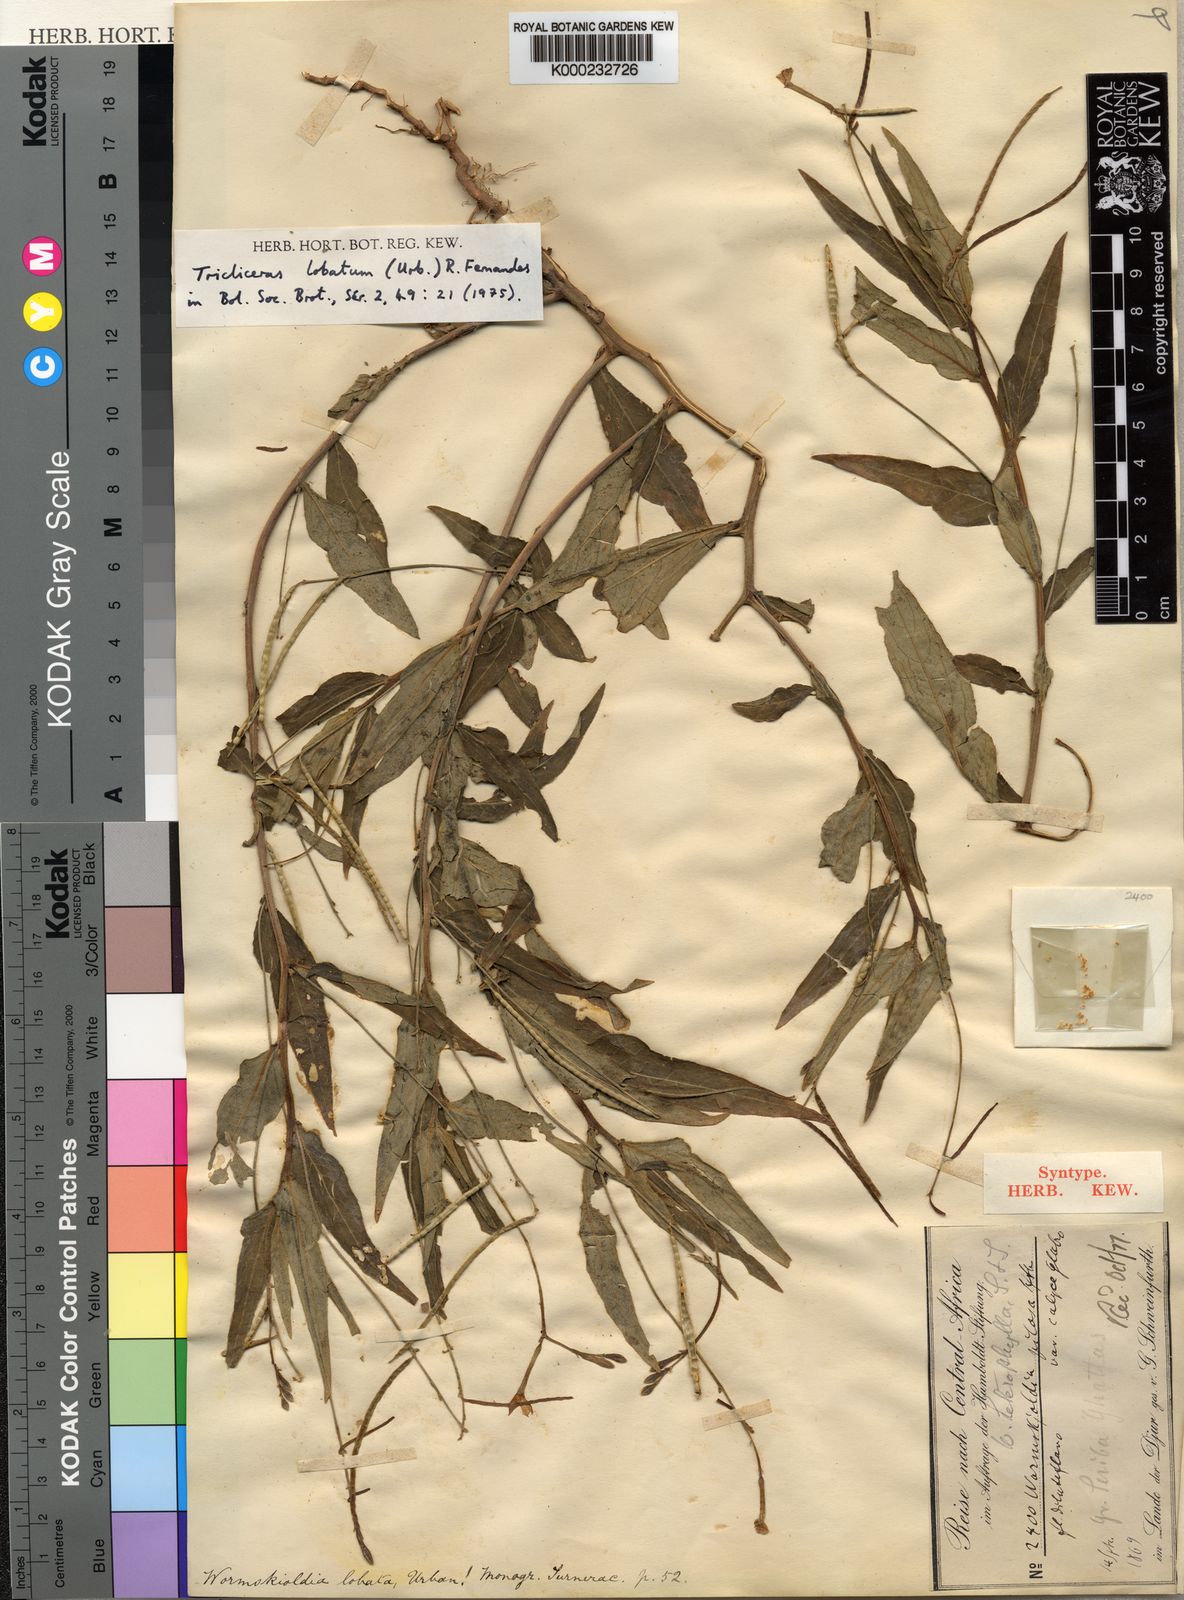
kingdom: Plantae
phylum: Tracheophyta
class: Magnoliopsida
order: Malpighiales
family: Turneraceae
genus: Tricliceras
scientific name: Tricliceras lobatum
